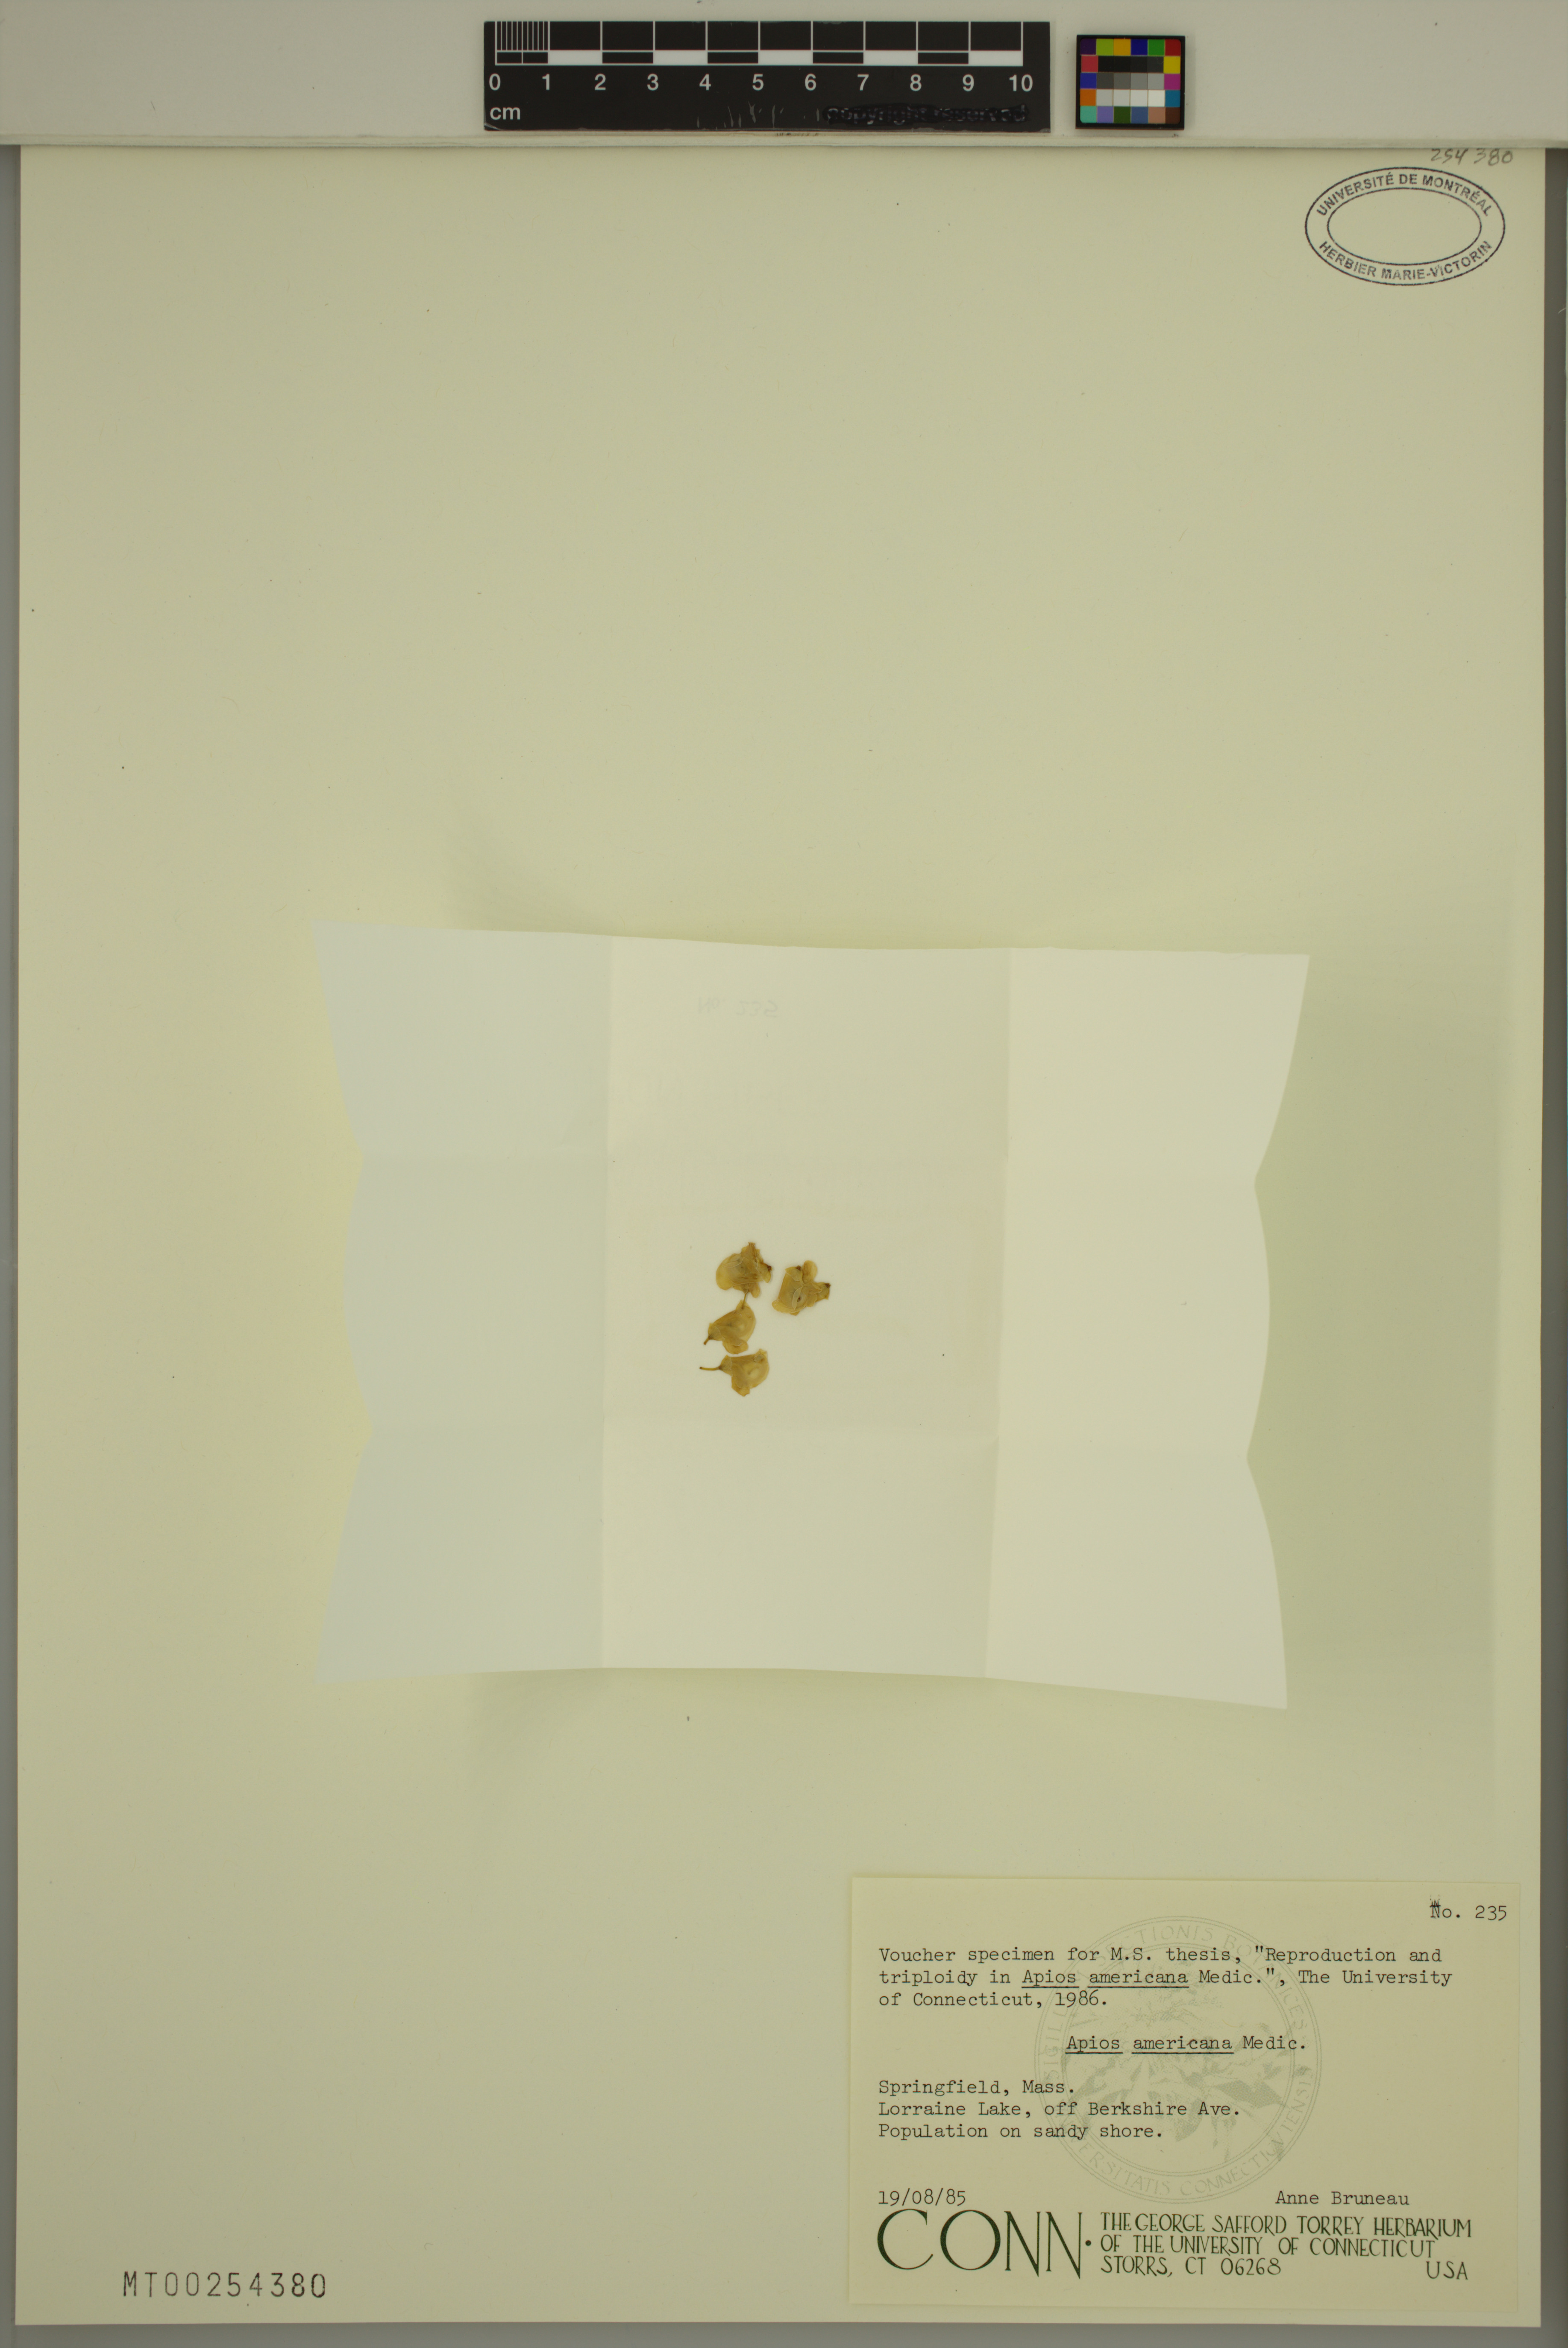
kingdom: Plantae
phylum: Tracheophyta
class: Magnoliopsida
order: Fabales
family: Fabaceae
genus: Apios
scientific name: Apios americana
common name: American potato-bean
